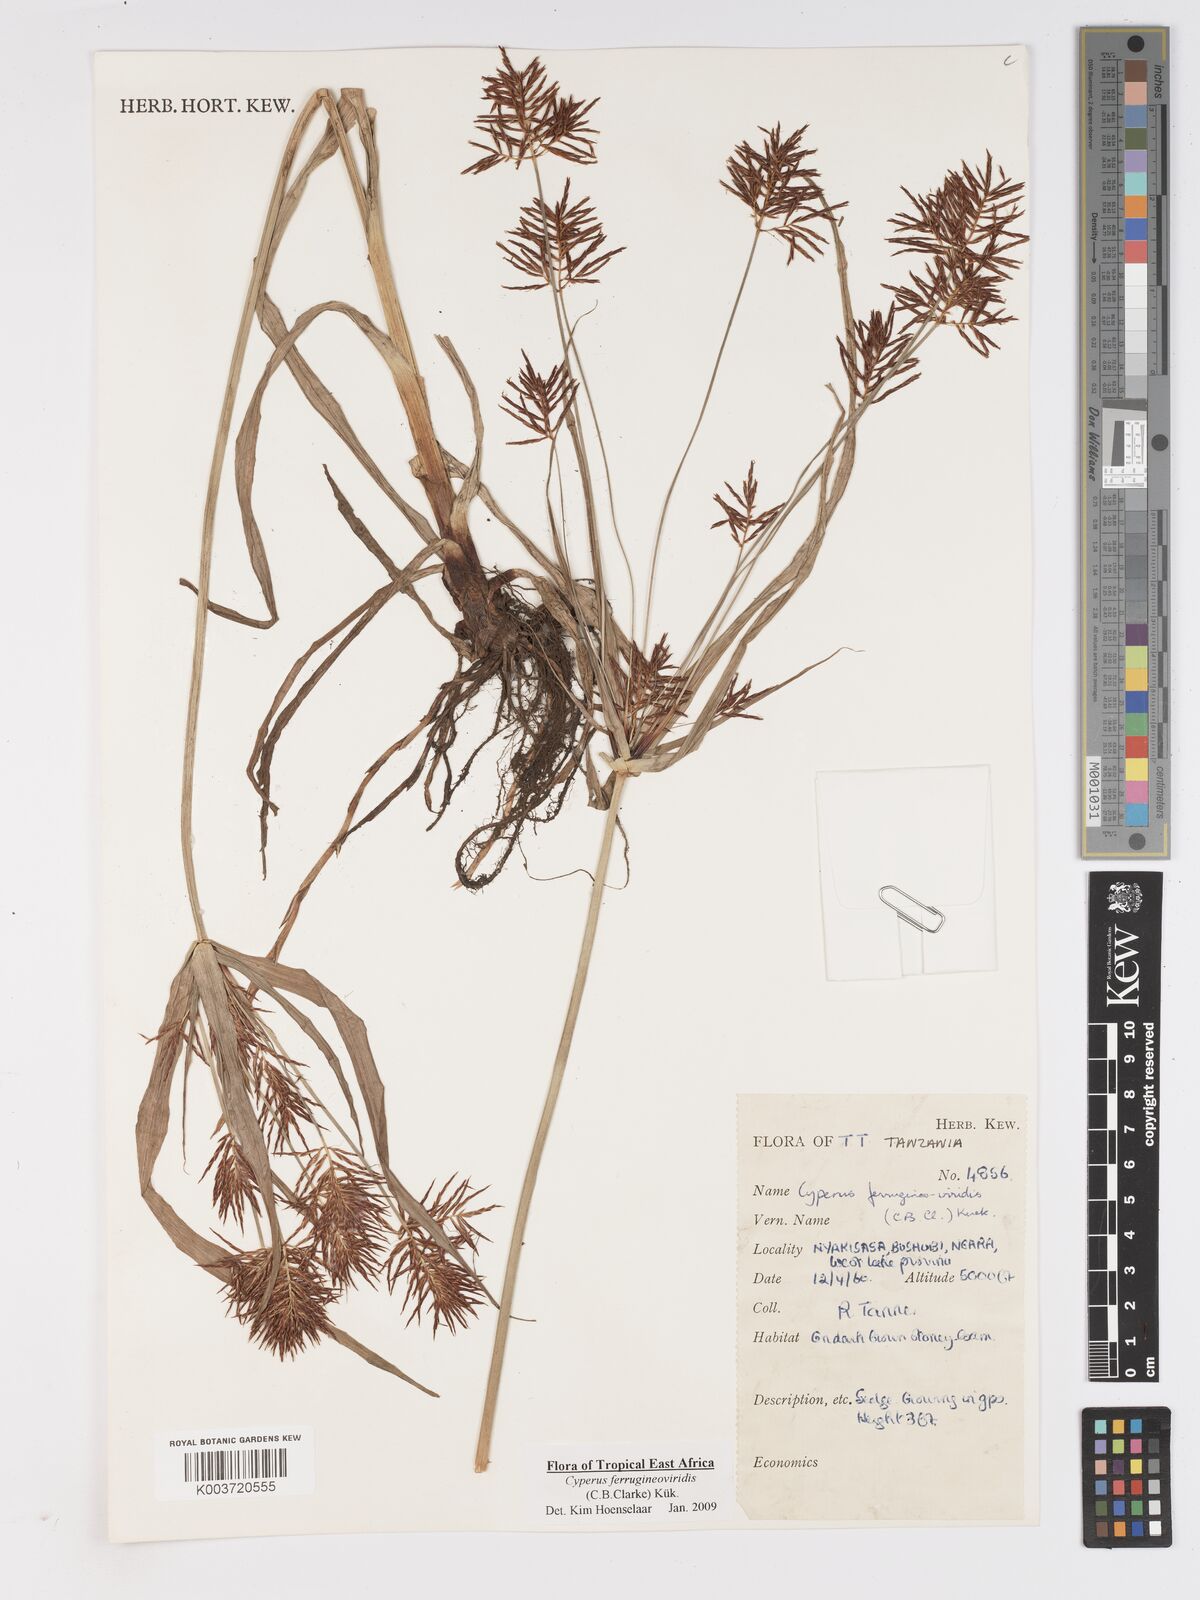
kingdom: Plantae
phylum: Tracheophyta
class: Liliopsida
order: Poales
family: Cyperaceae
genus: Cyperus
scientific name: Cyperus ferrugineoviridis
